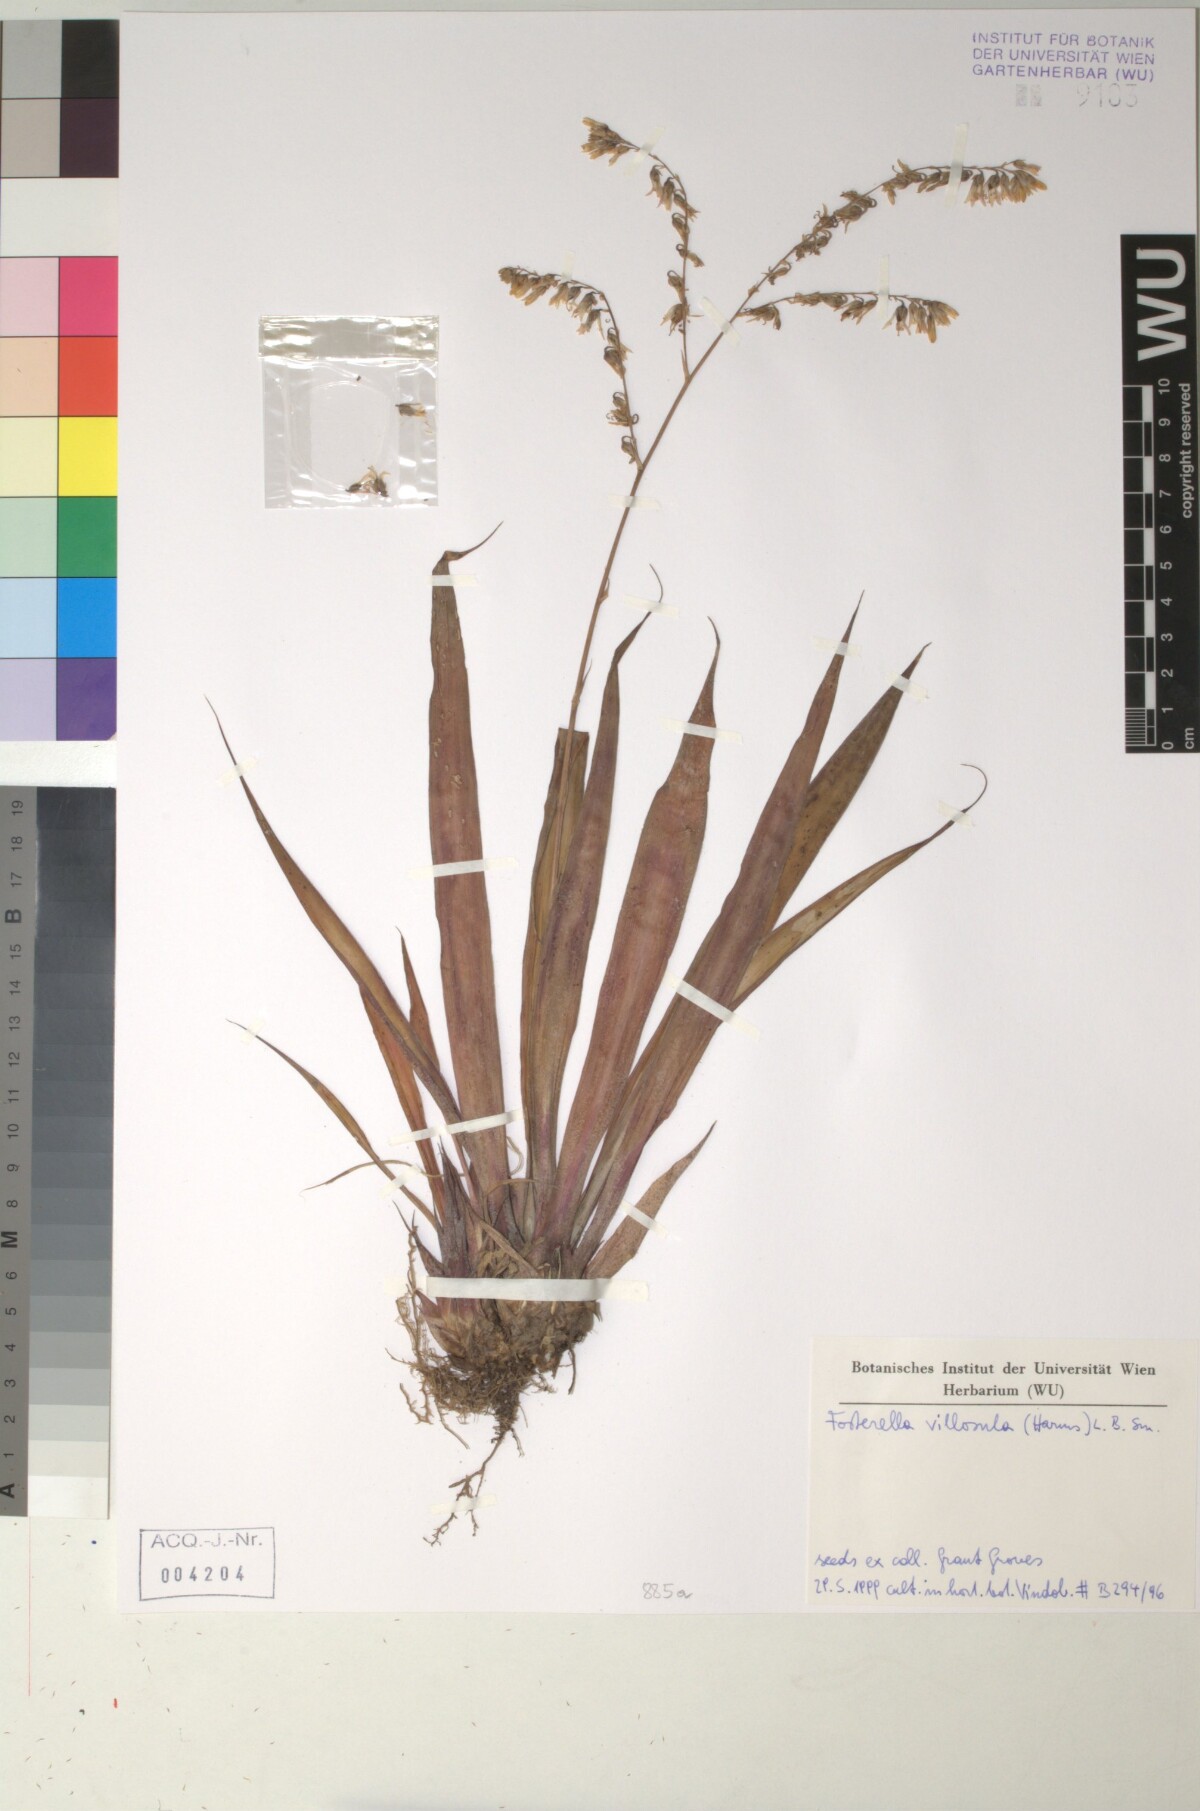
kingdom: Plantae
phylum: Tracheophyta
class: Liliopsida
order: Poales
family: Bromeliaceae
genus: Fosterella
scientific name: Fosterella penduliflora
